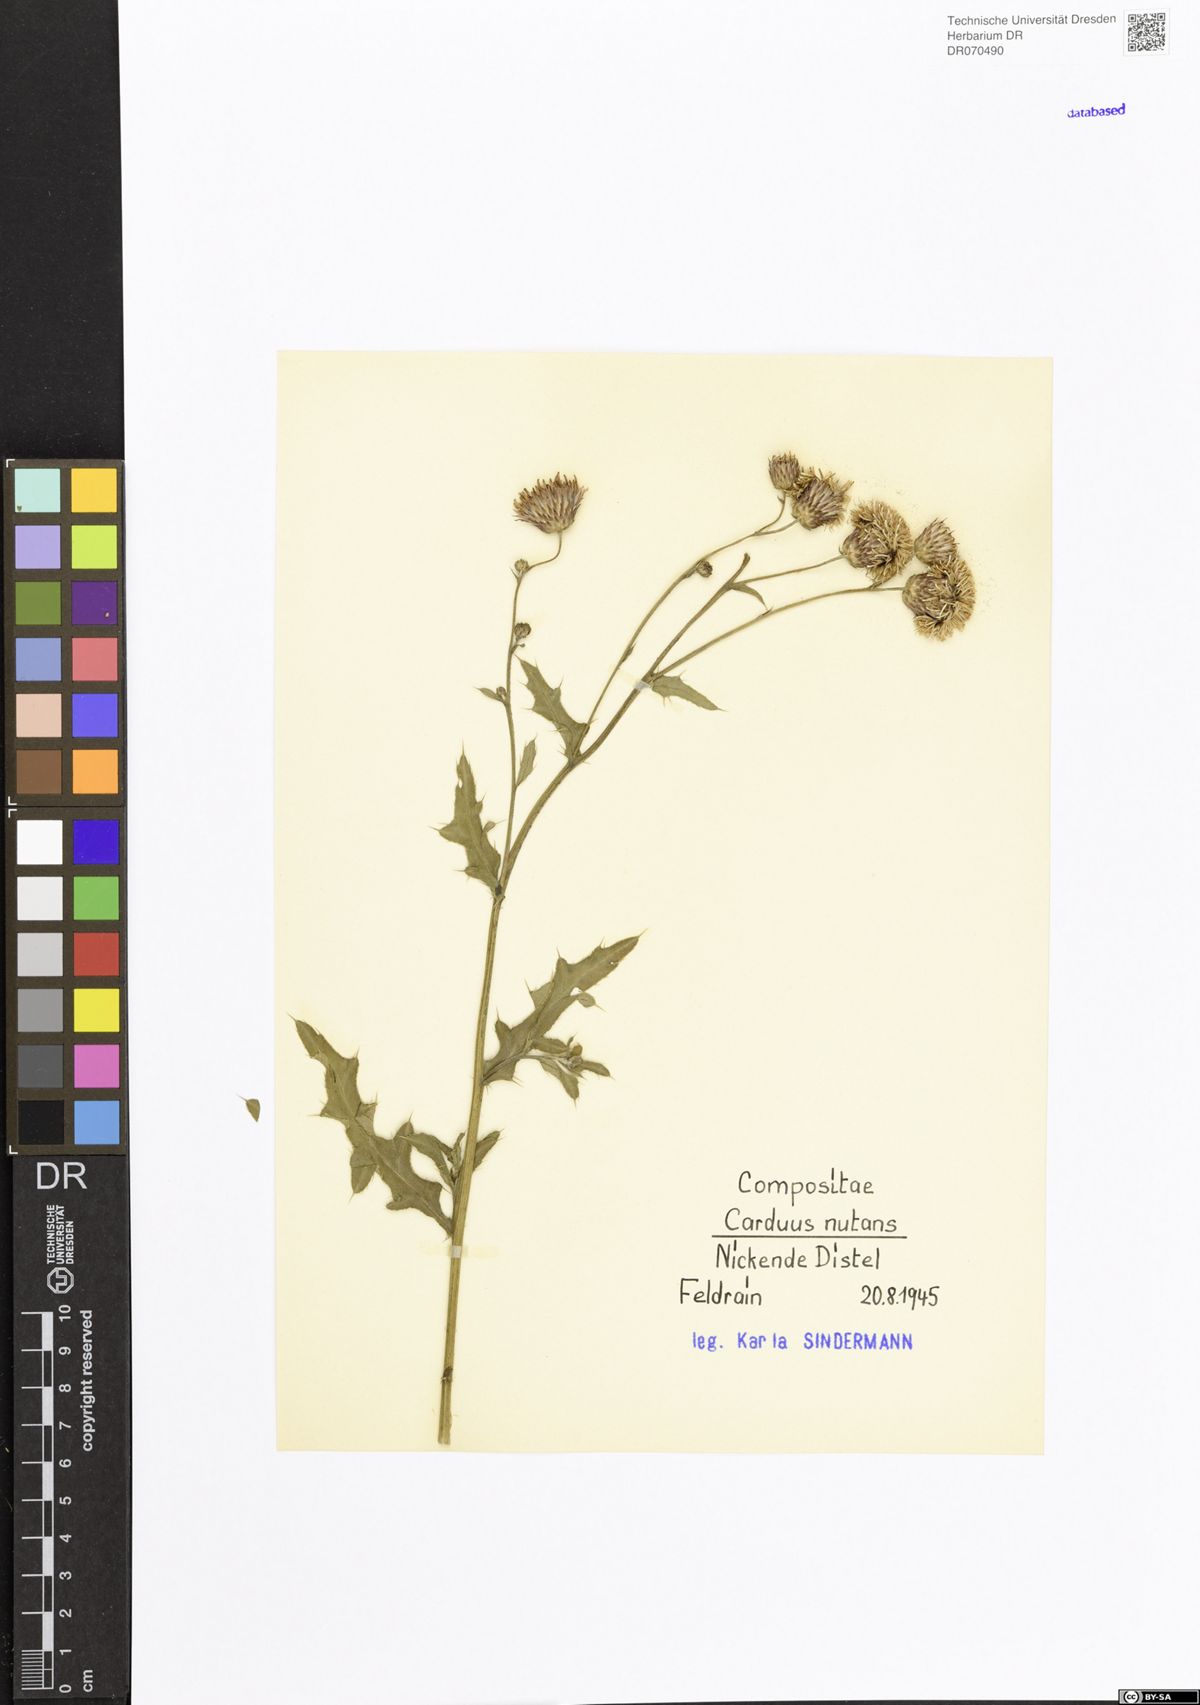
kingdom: Plantae
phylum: Tracheophyta
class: Magnoliopsida
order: Asterales
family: Asteraceae
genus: Carduus
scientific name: Carduus nutans
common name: Musk thistle
